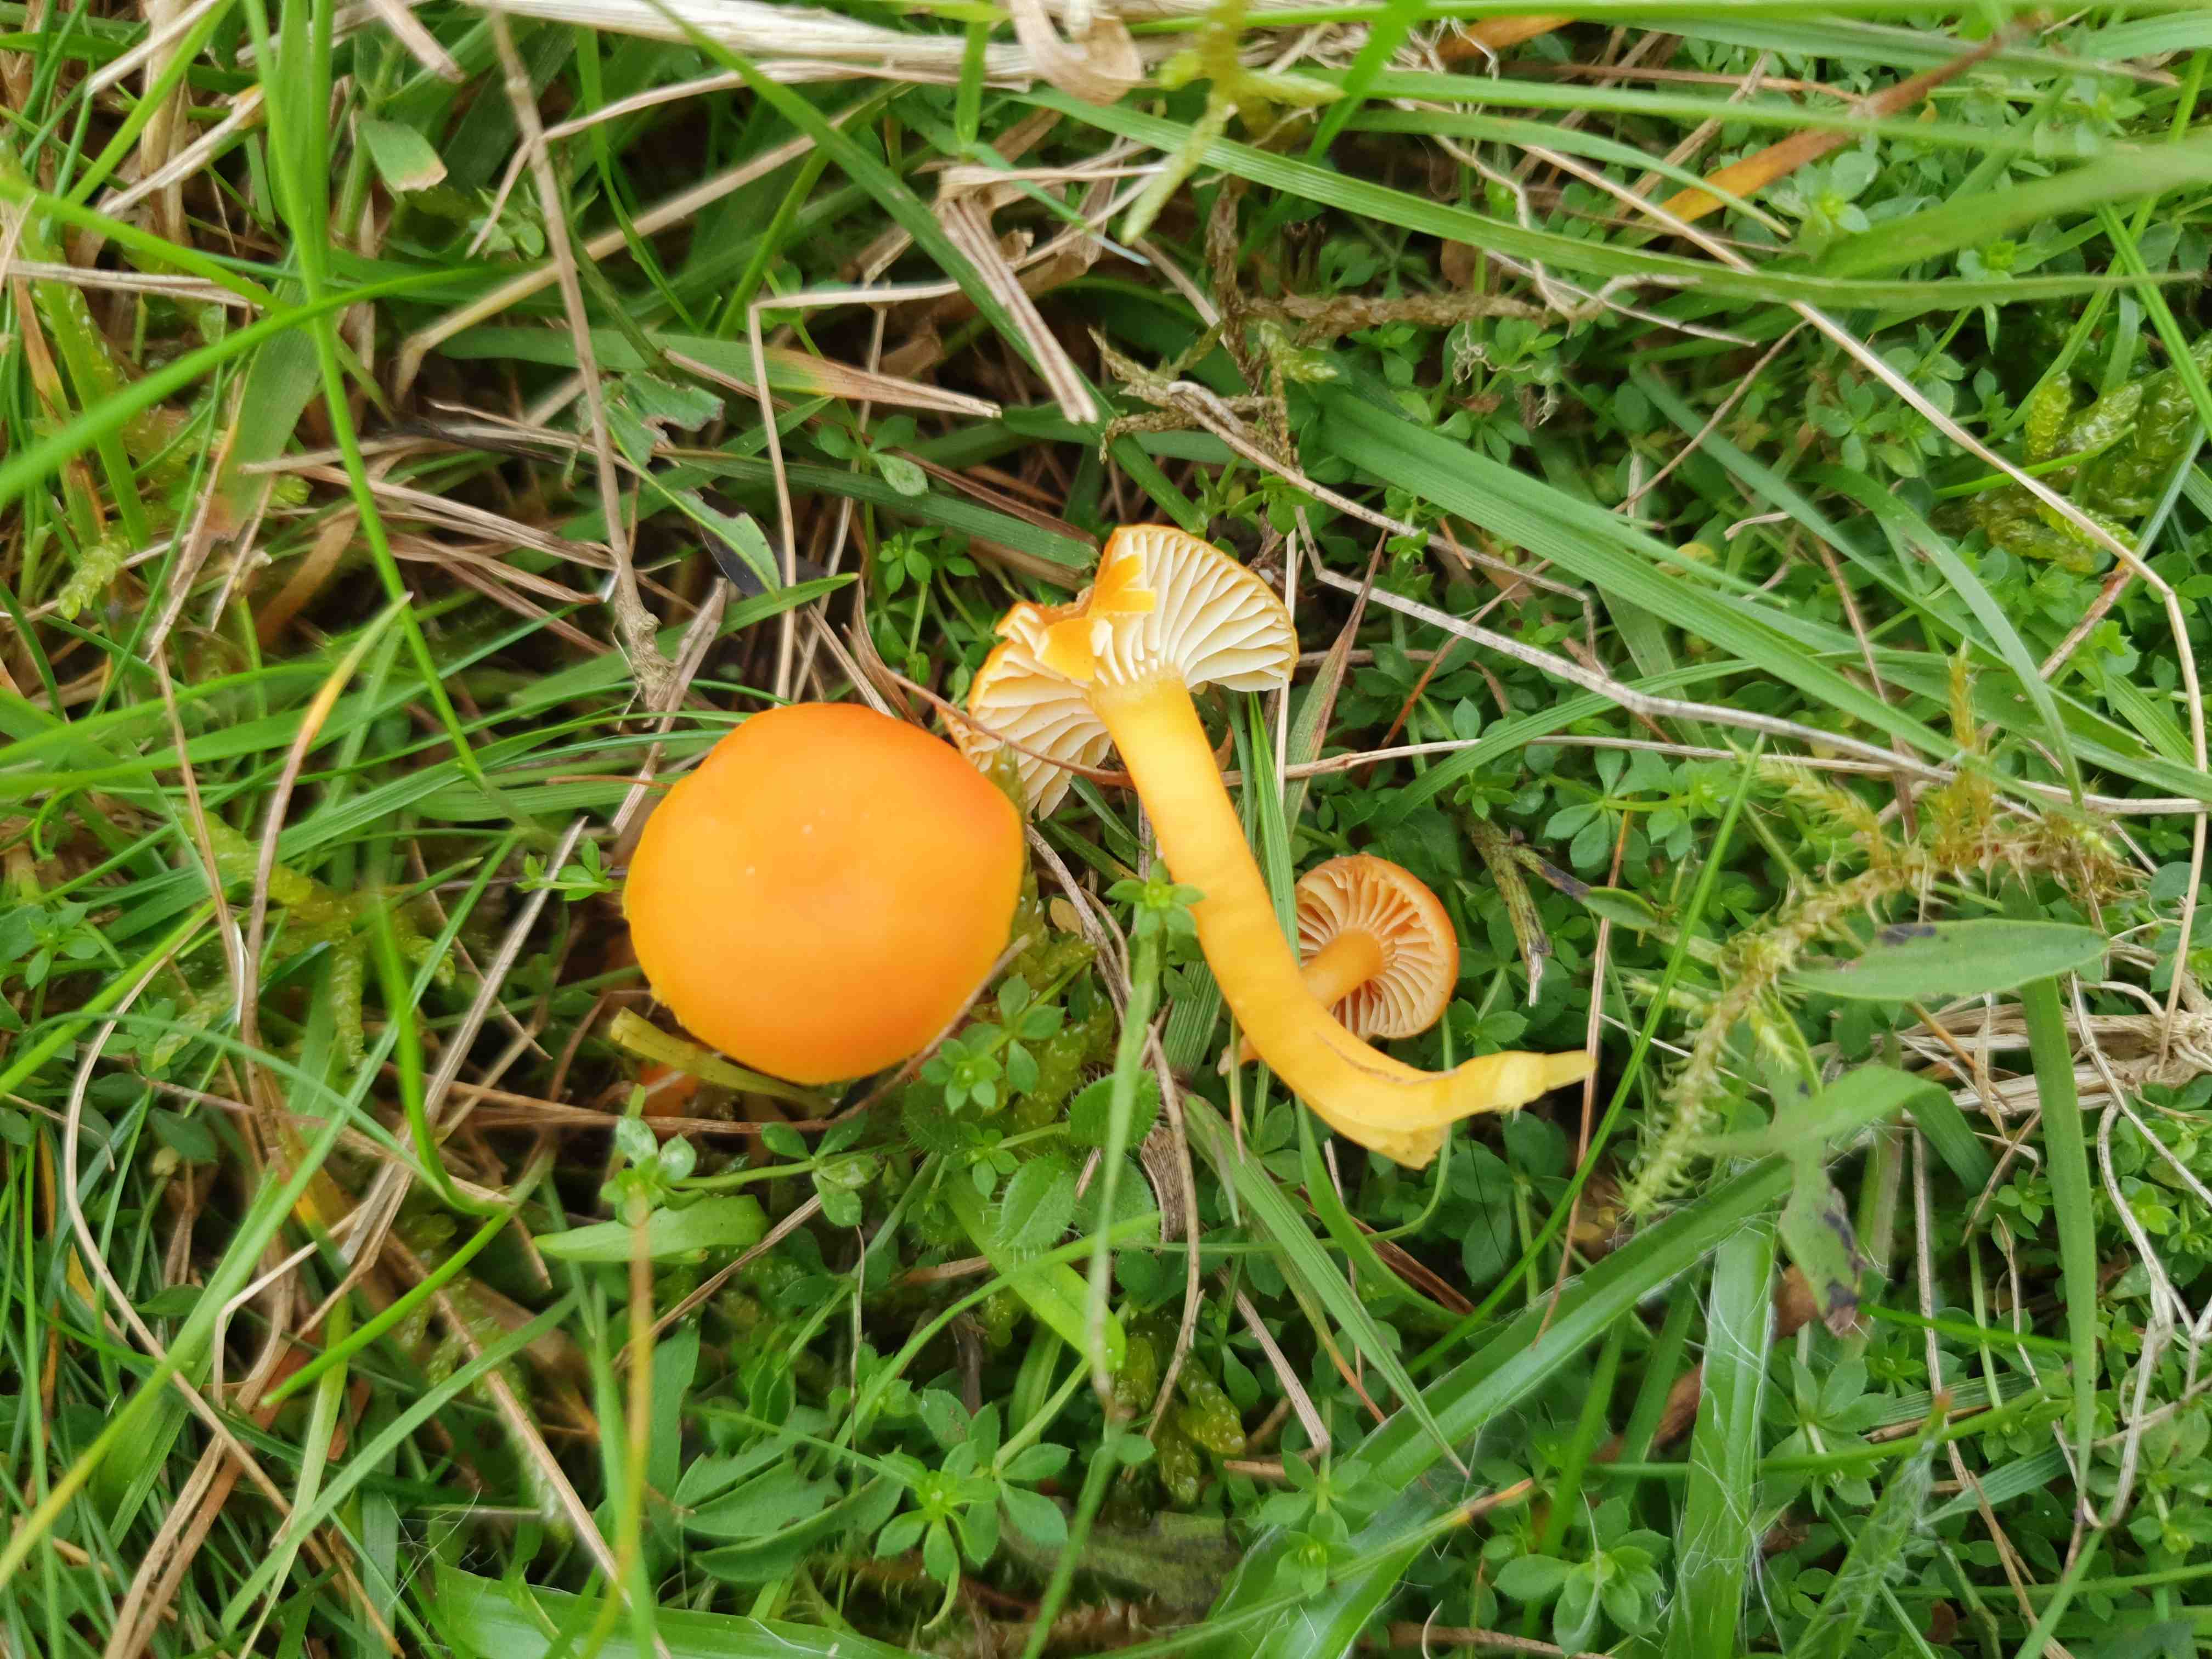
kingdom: Fungi
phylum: Basidiomycota
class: Agaricomycetes
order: Agaricales
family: Hygrophoraceae
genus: Hygrocybe
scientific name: Hygrocybe reidii
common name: honning-vokshat
